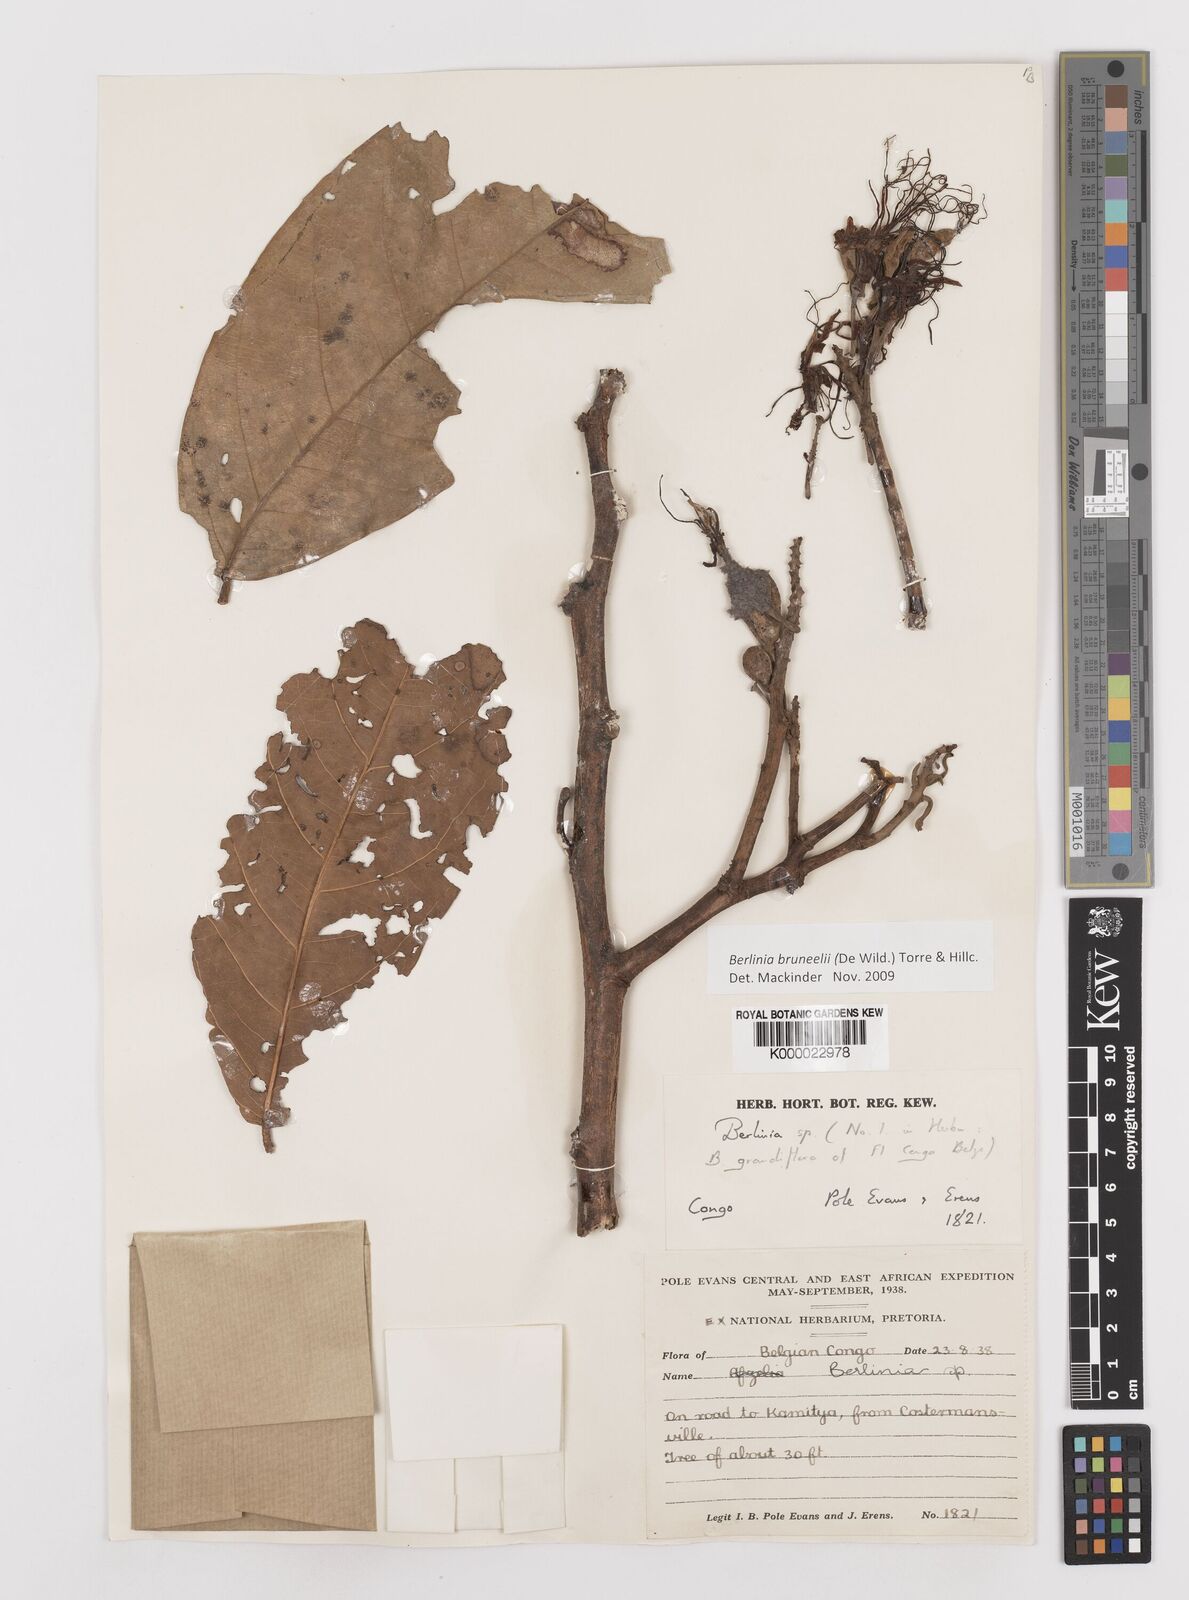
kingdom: Plantae
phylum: Tracheophyta
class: Magnoliopsida
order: Fabales
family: Fabaceae
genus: Berlinia
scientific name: Berlinia bruneelii
